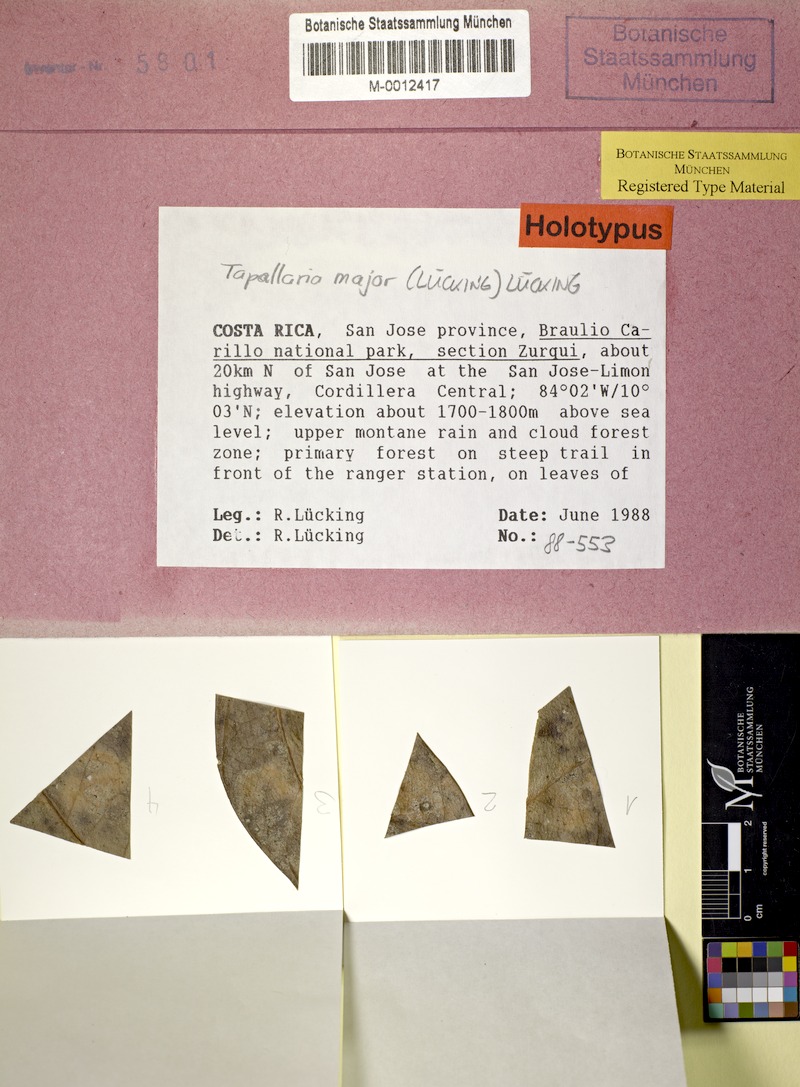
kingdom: Fungi
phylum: Ascomycota
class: Lecanoromycetes
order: Lecanorales
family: Byssolomataceae
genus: Tapellaria
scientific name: Tapellaria
